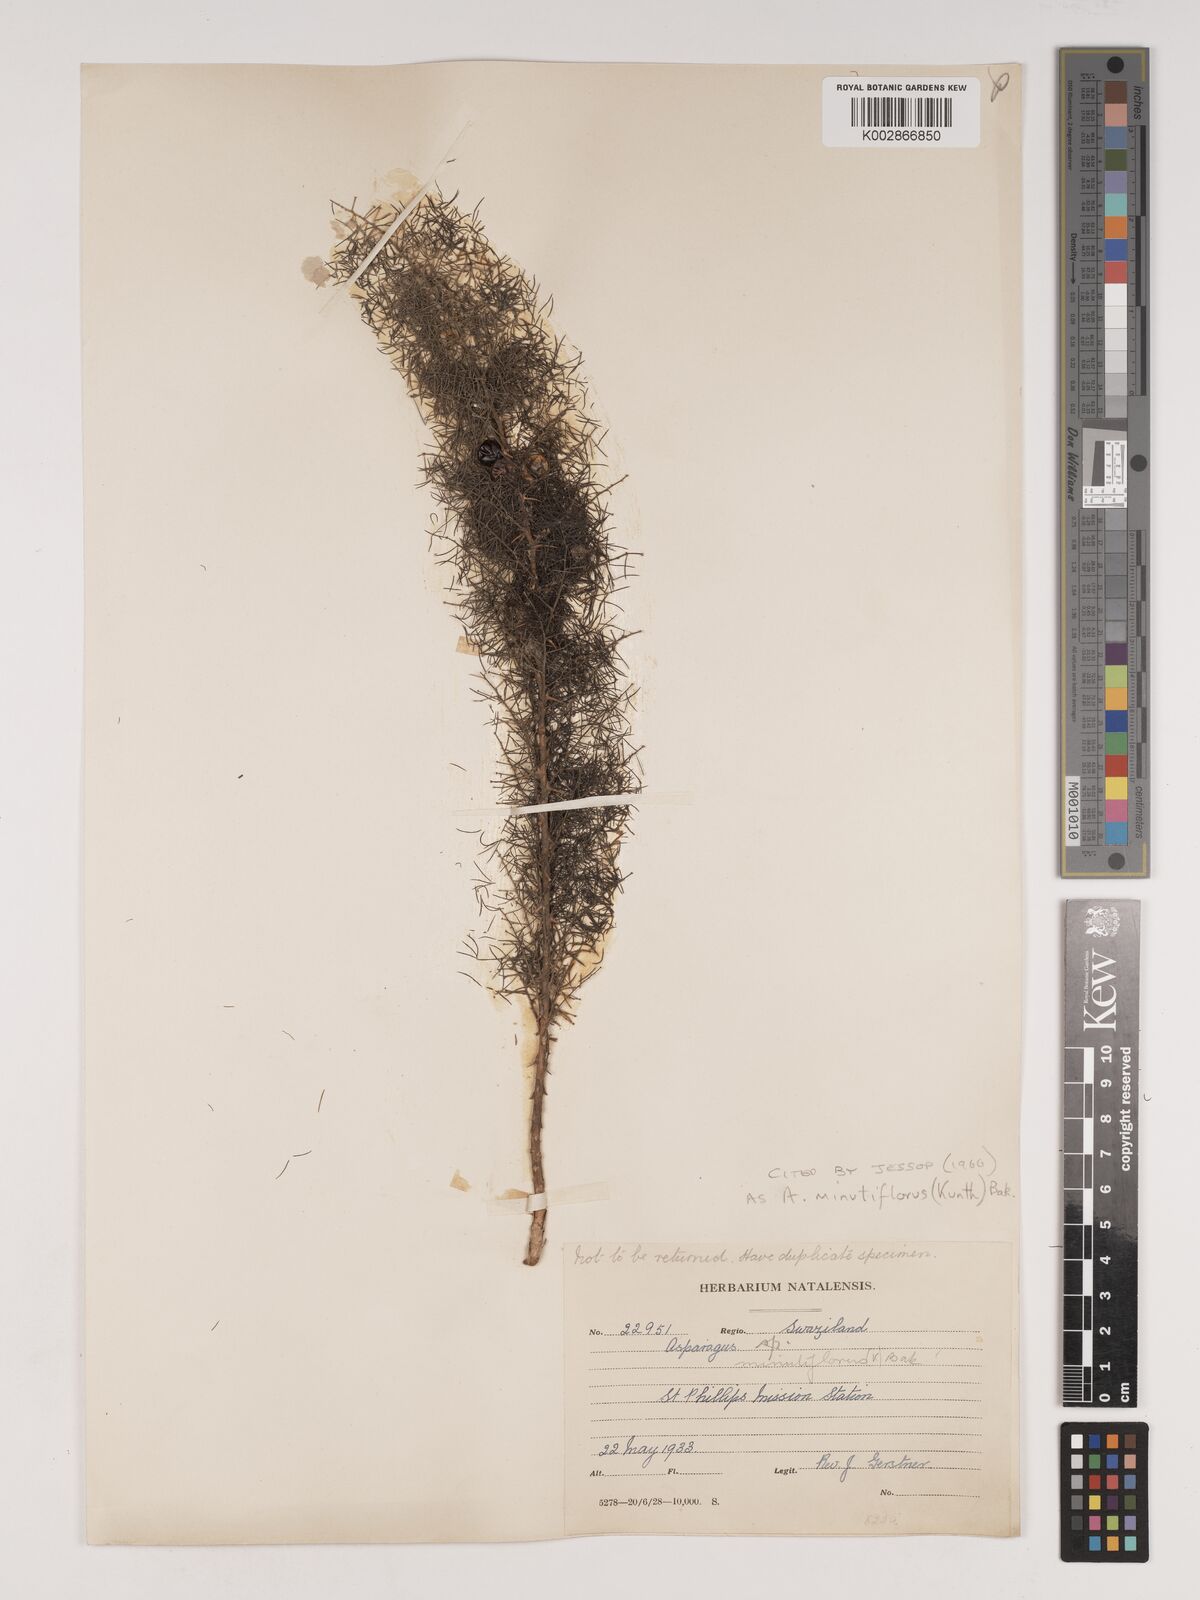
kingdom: Plantae
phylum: Tracheophyta
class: Liliopsida
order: Asparagales
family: Asparagaceae
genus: Asparagus
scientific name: Asparagus minutiflorus
